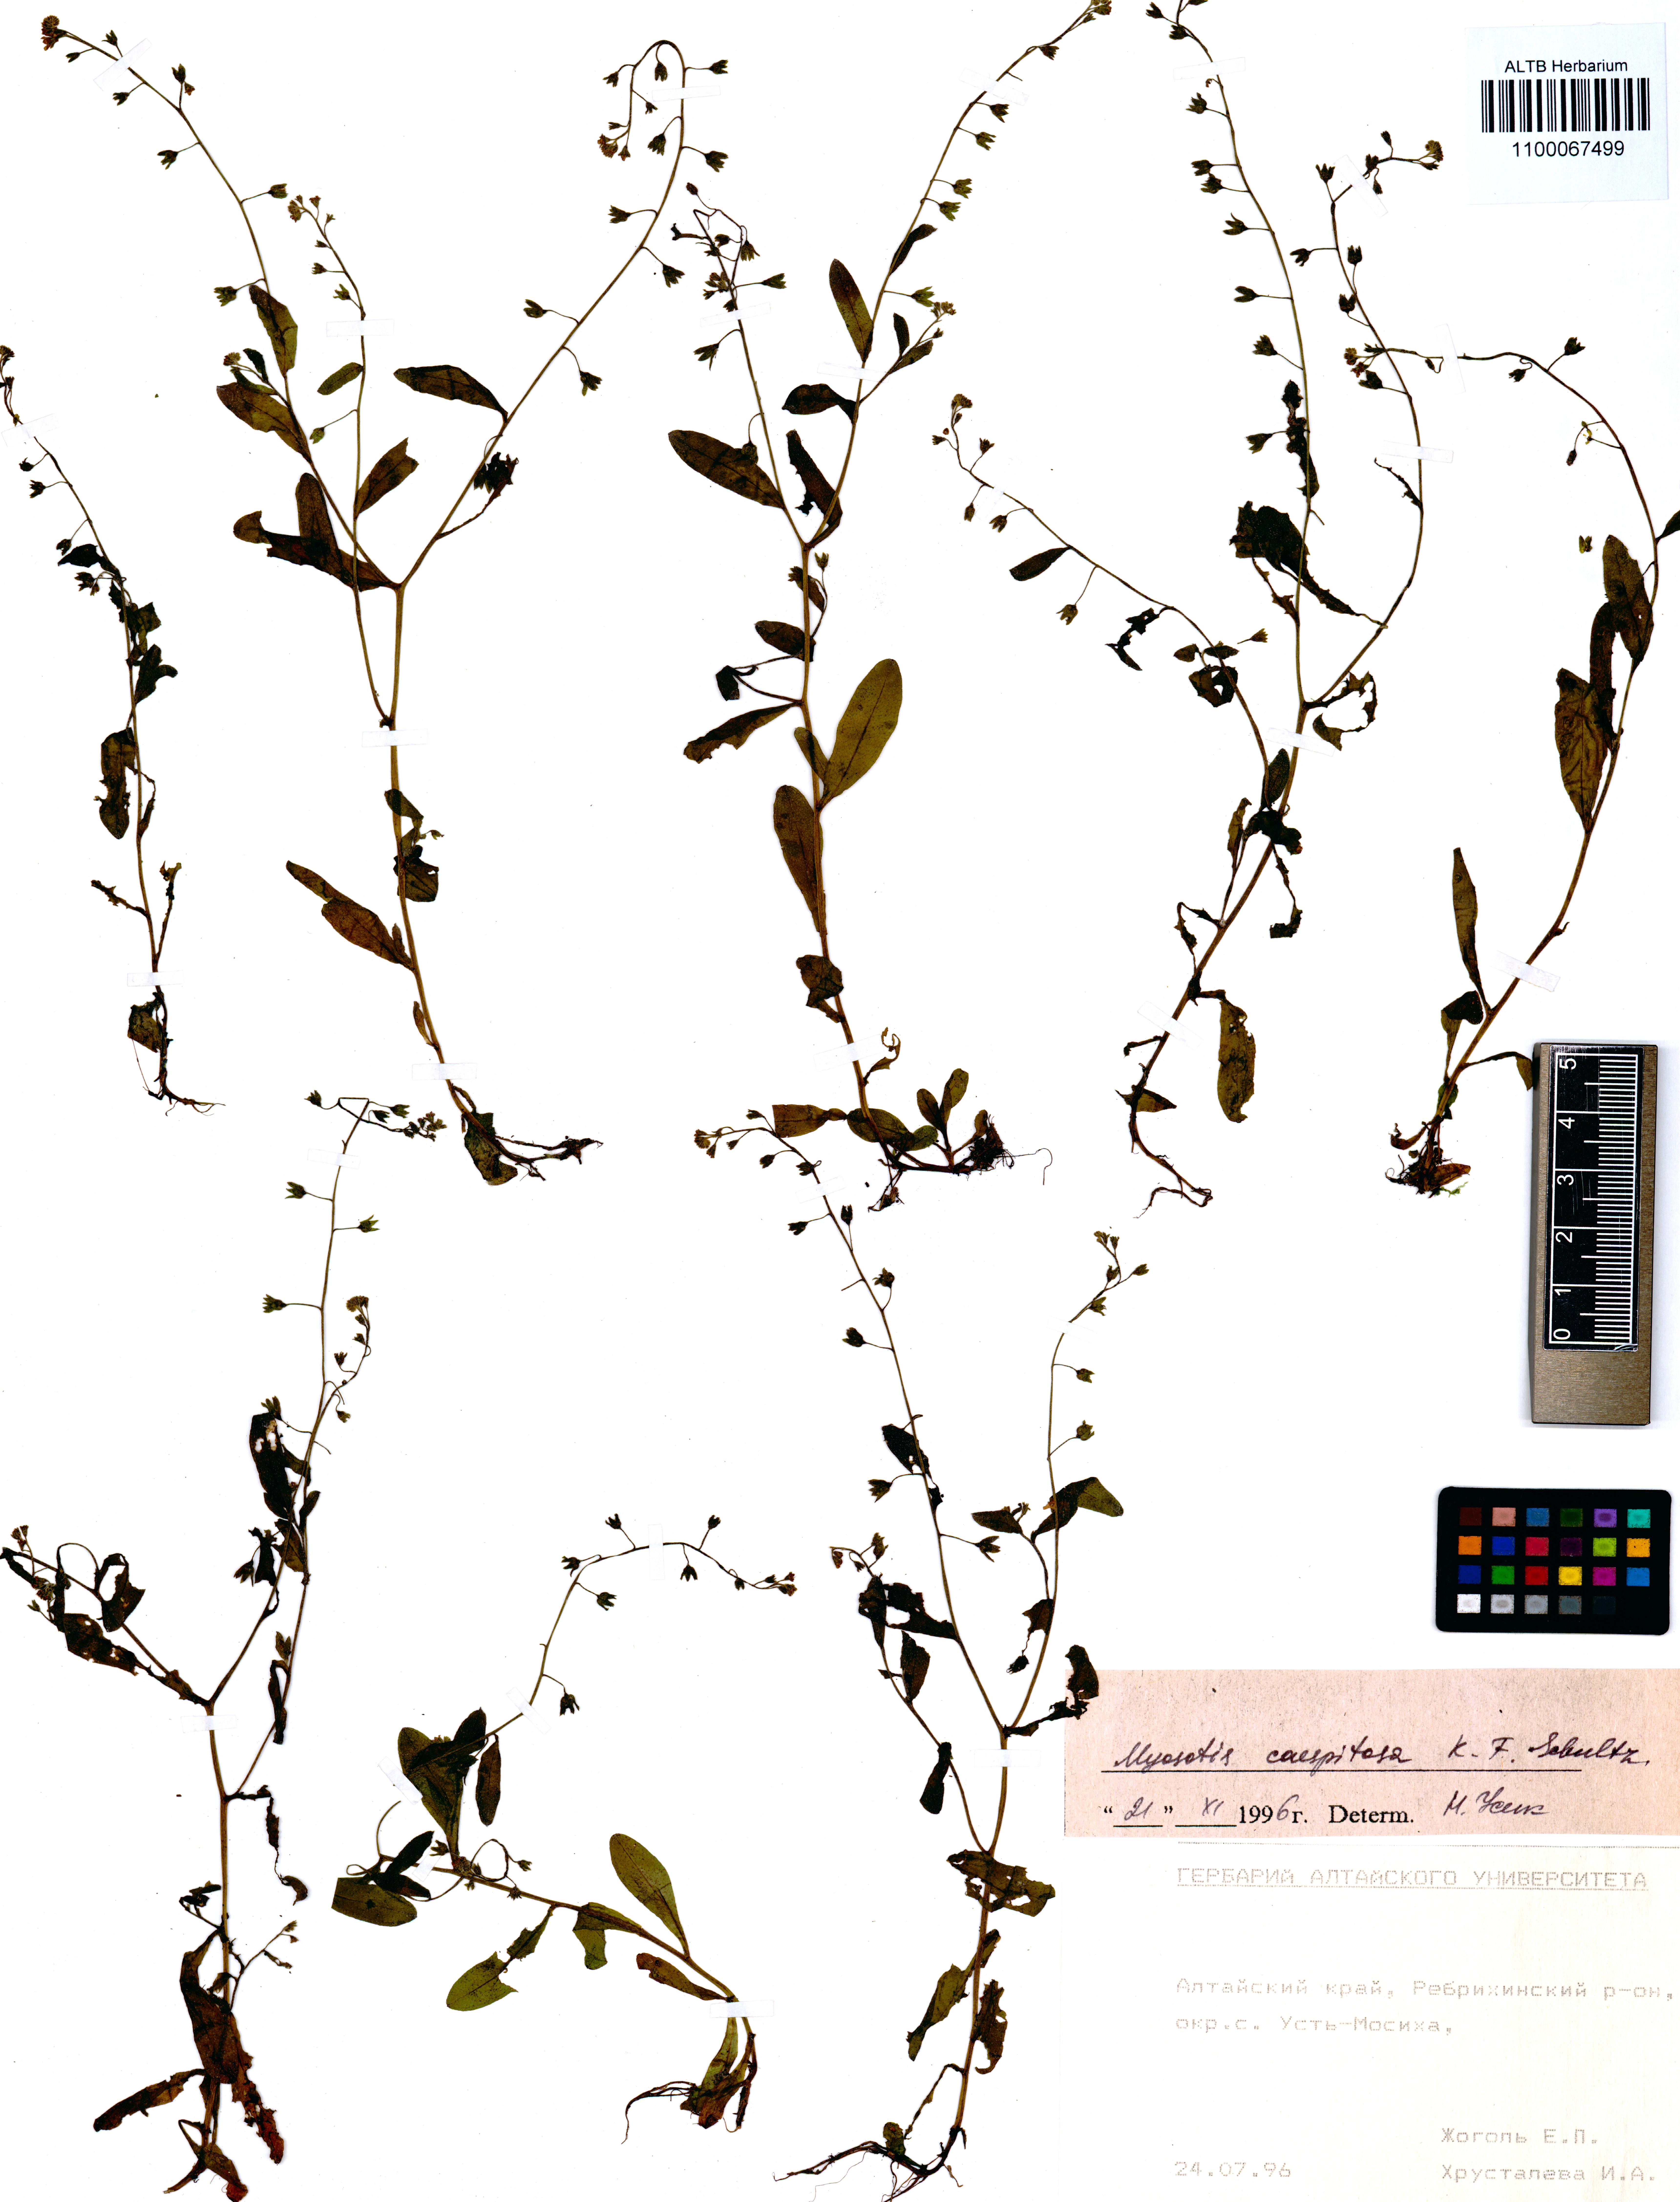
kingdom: Plantae
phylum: Tracheophyta
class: Magnoliopsida
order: Boraginales
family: Boraginaceae
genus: Myosotis
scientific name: Myosotis laxa
